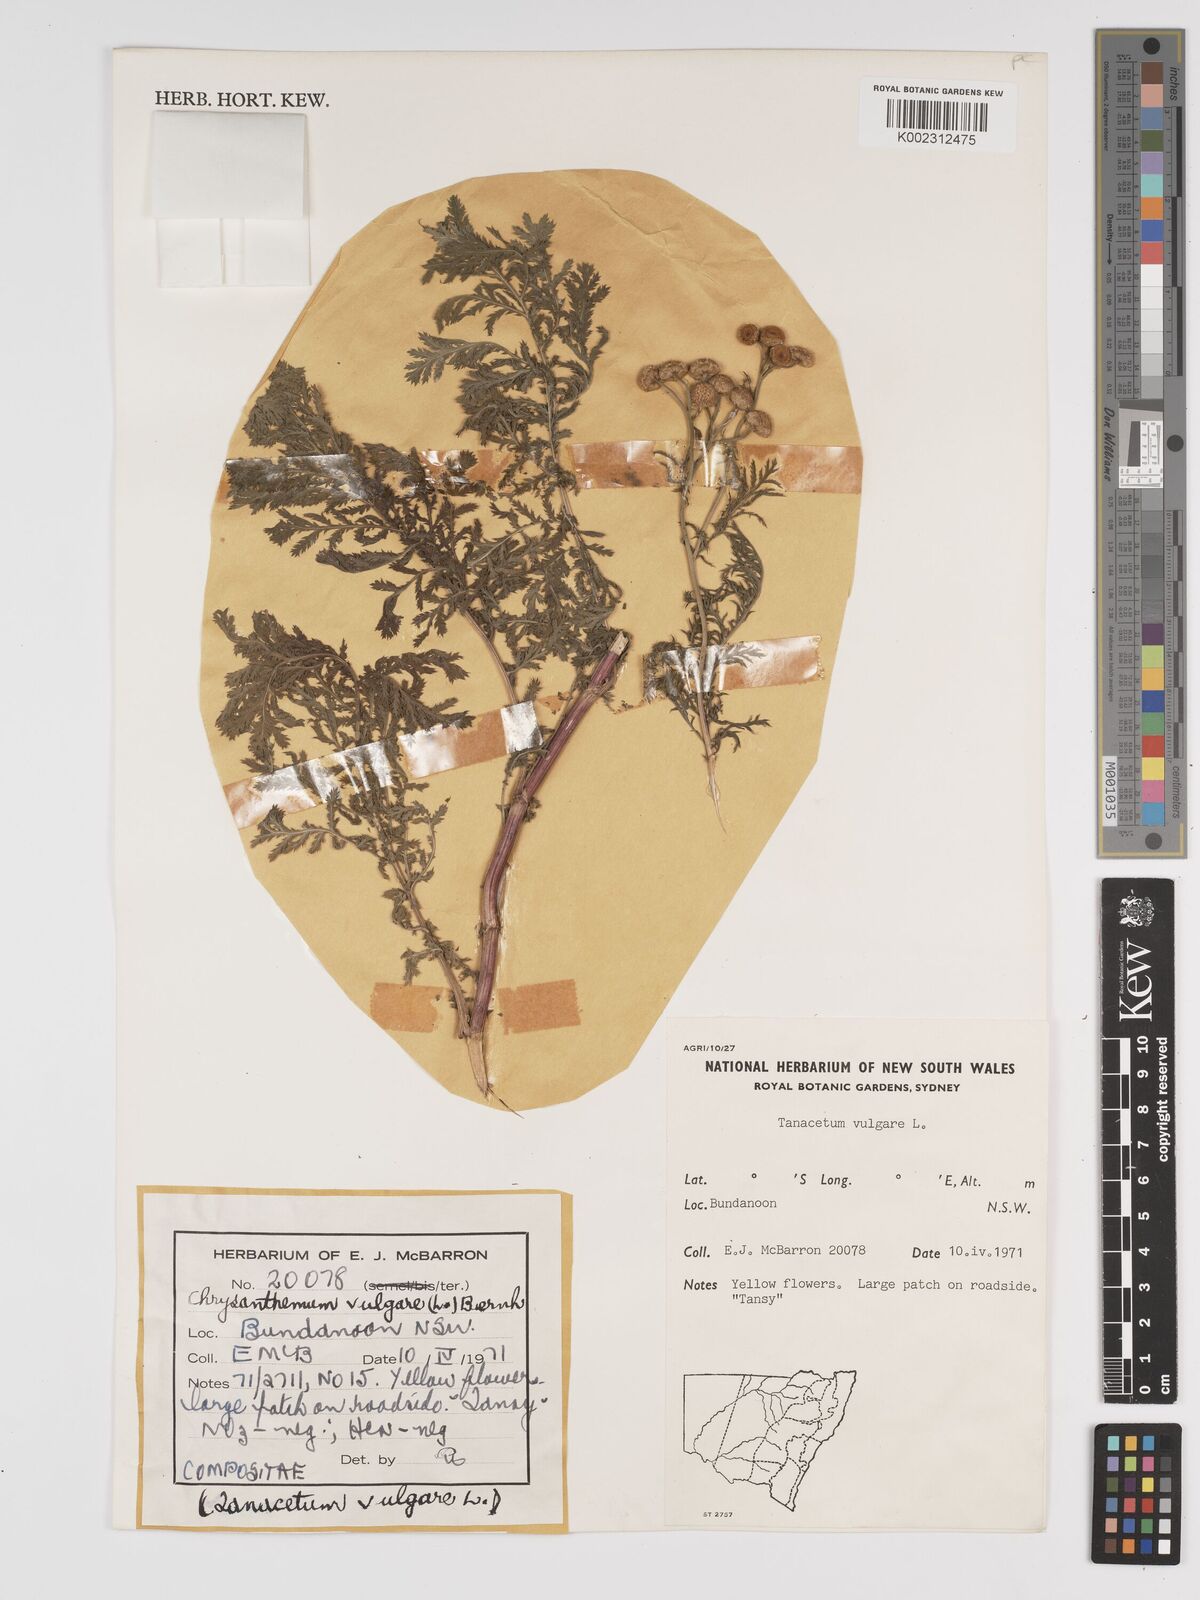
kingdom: Plantae
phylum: Tracheophyta
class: Magnoliopsida
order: Asterales
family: Asteraceae
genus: Tanacetum
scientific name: Tanacetum vulgare
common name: Common tansy
